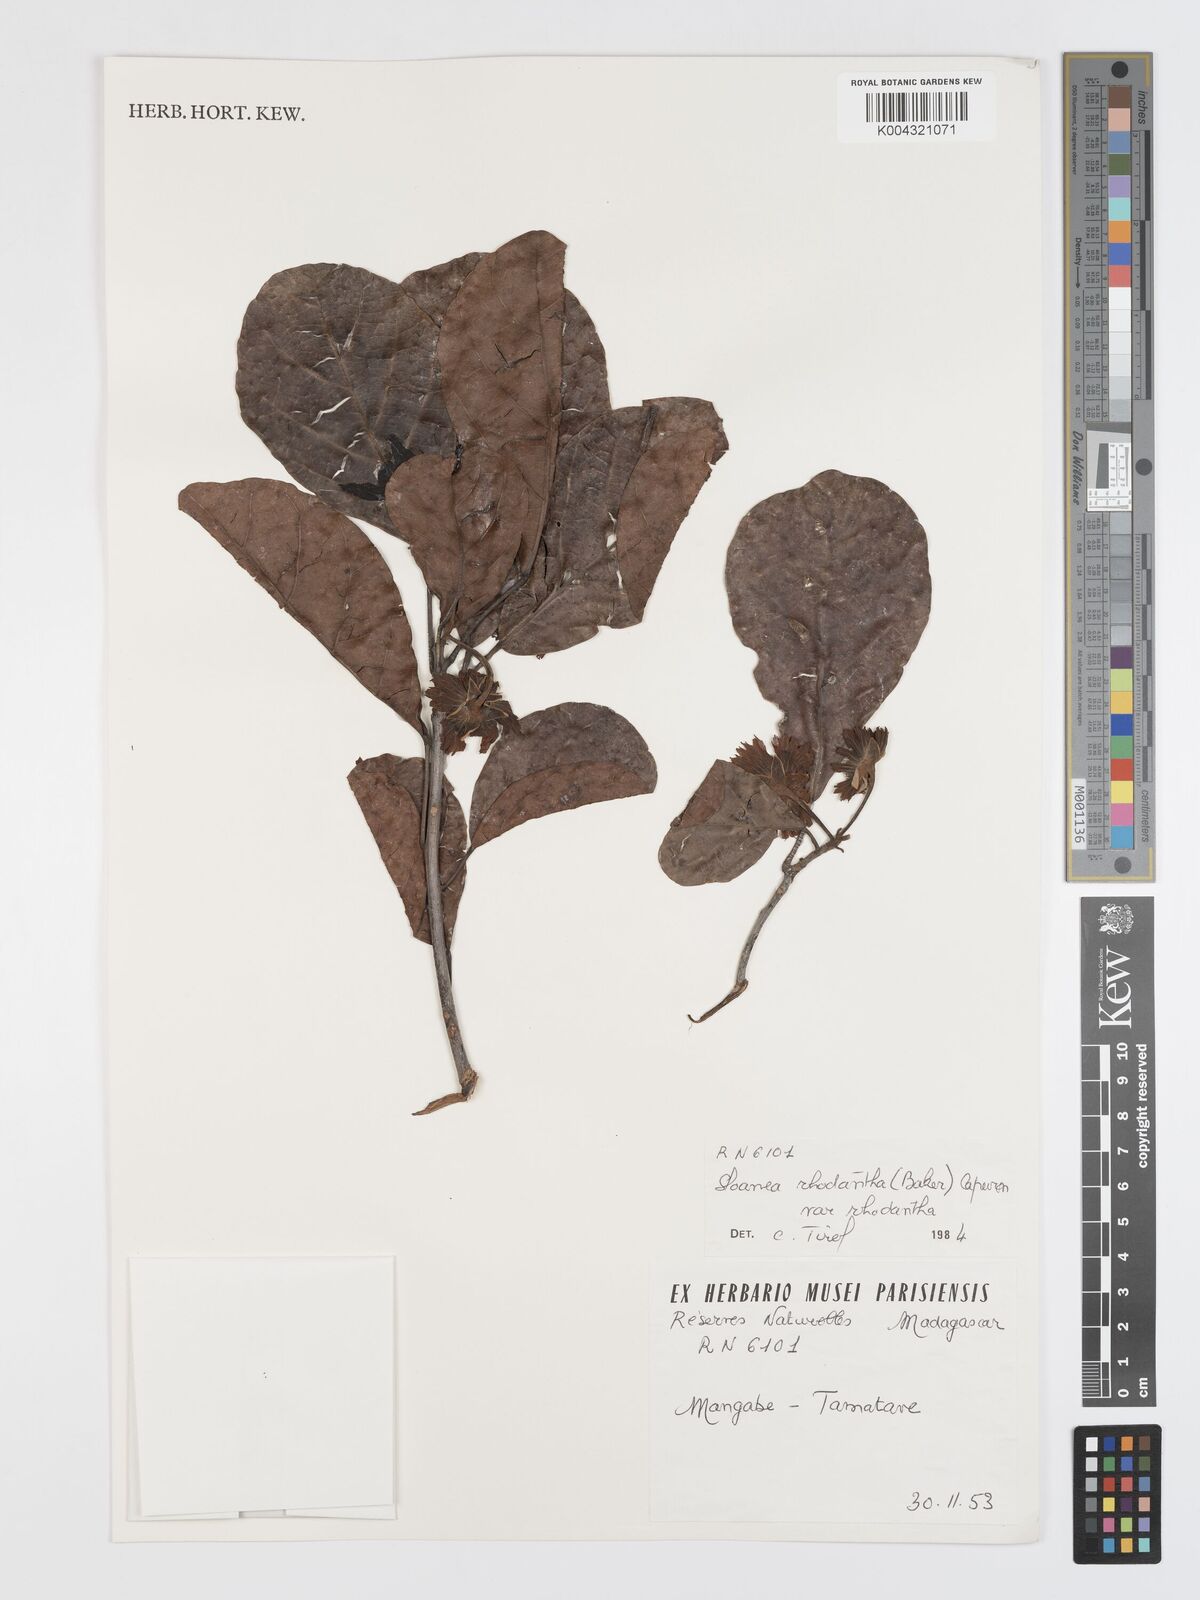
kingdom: Plantae
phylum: Tracheophyta
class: Magnoliopsida
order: Oxalidales
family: Elaeocarpaceae
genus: Sloanea
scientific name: Sloanea rhodantha
